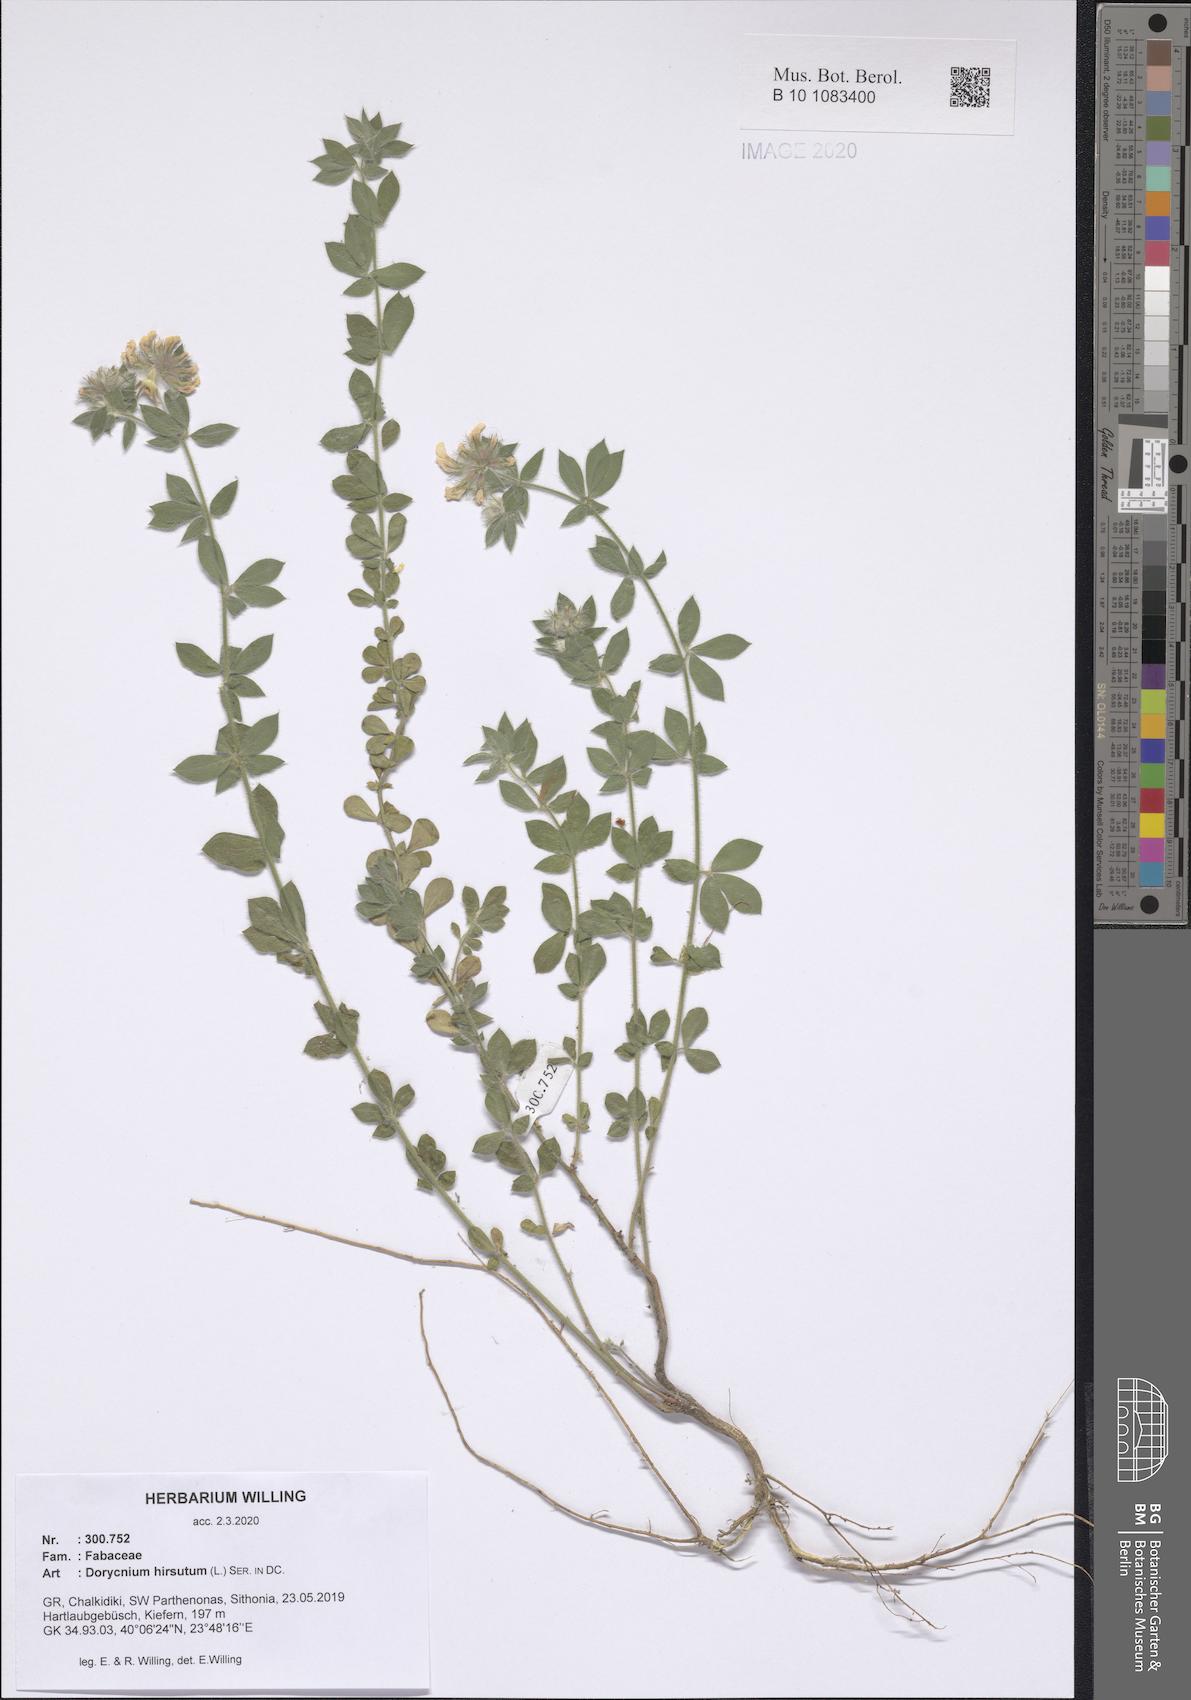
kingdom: Plantae
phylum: Tracheophyta
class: Magnoliopsida
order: Fabales
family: Fabaceae
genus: Lotus
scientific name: Lotus hirsutus
